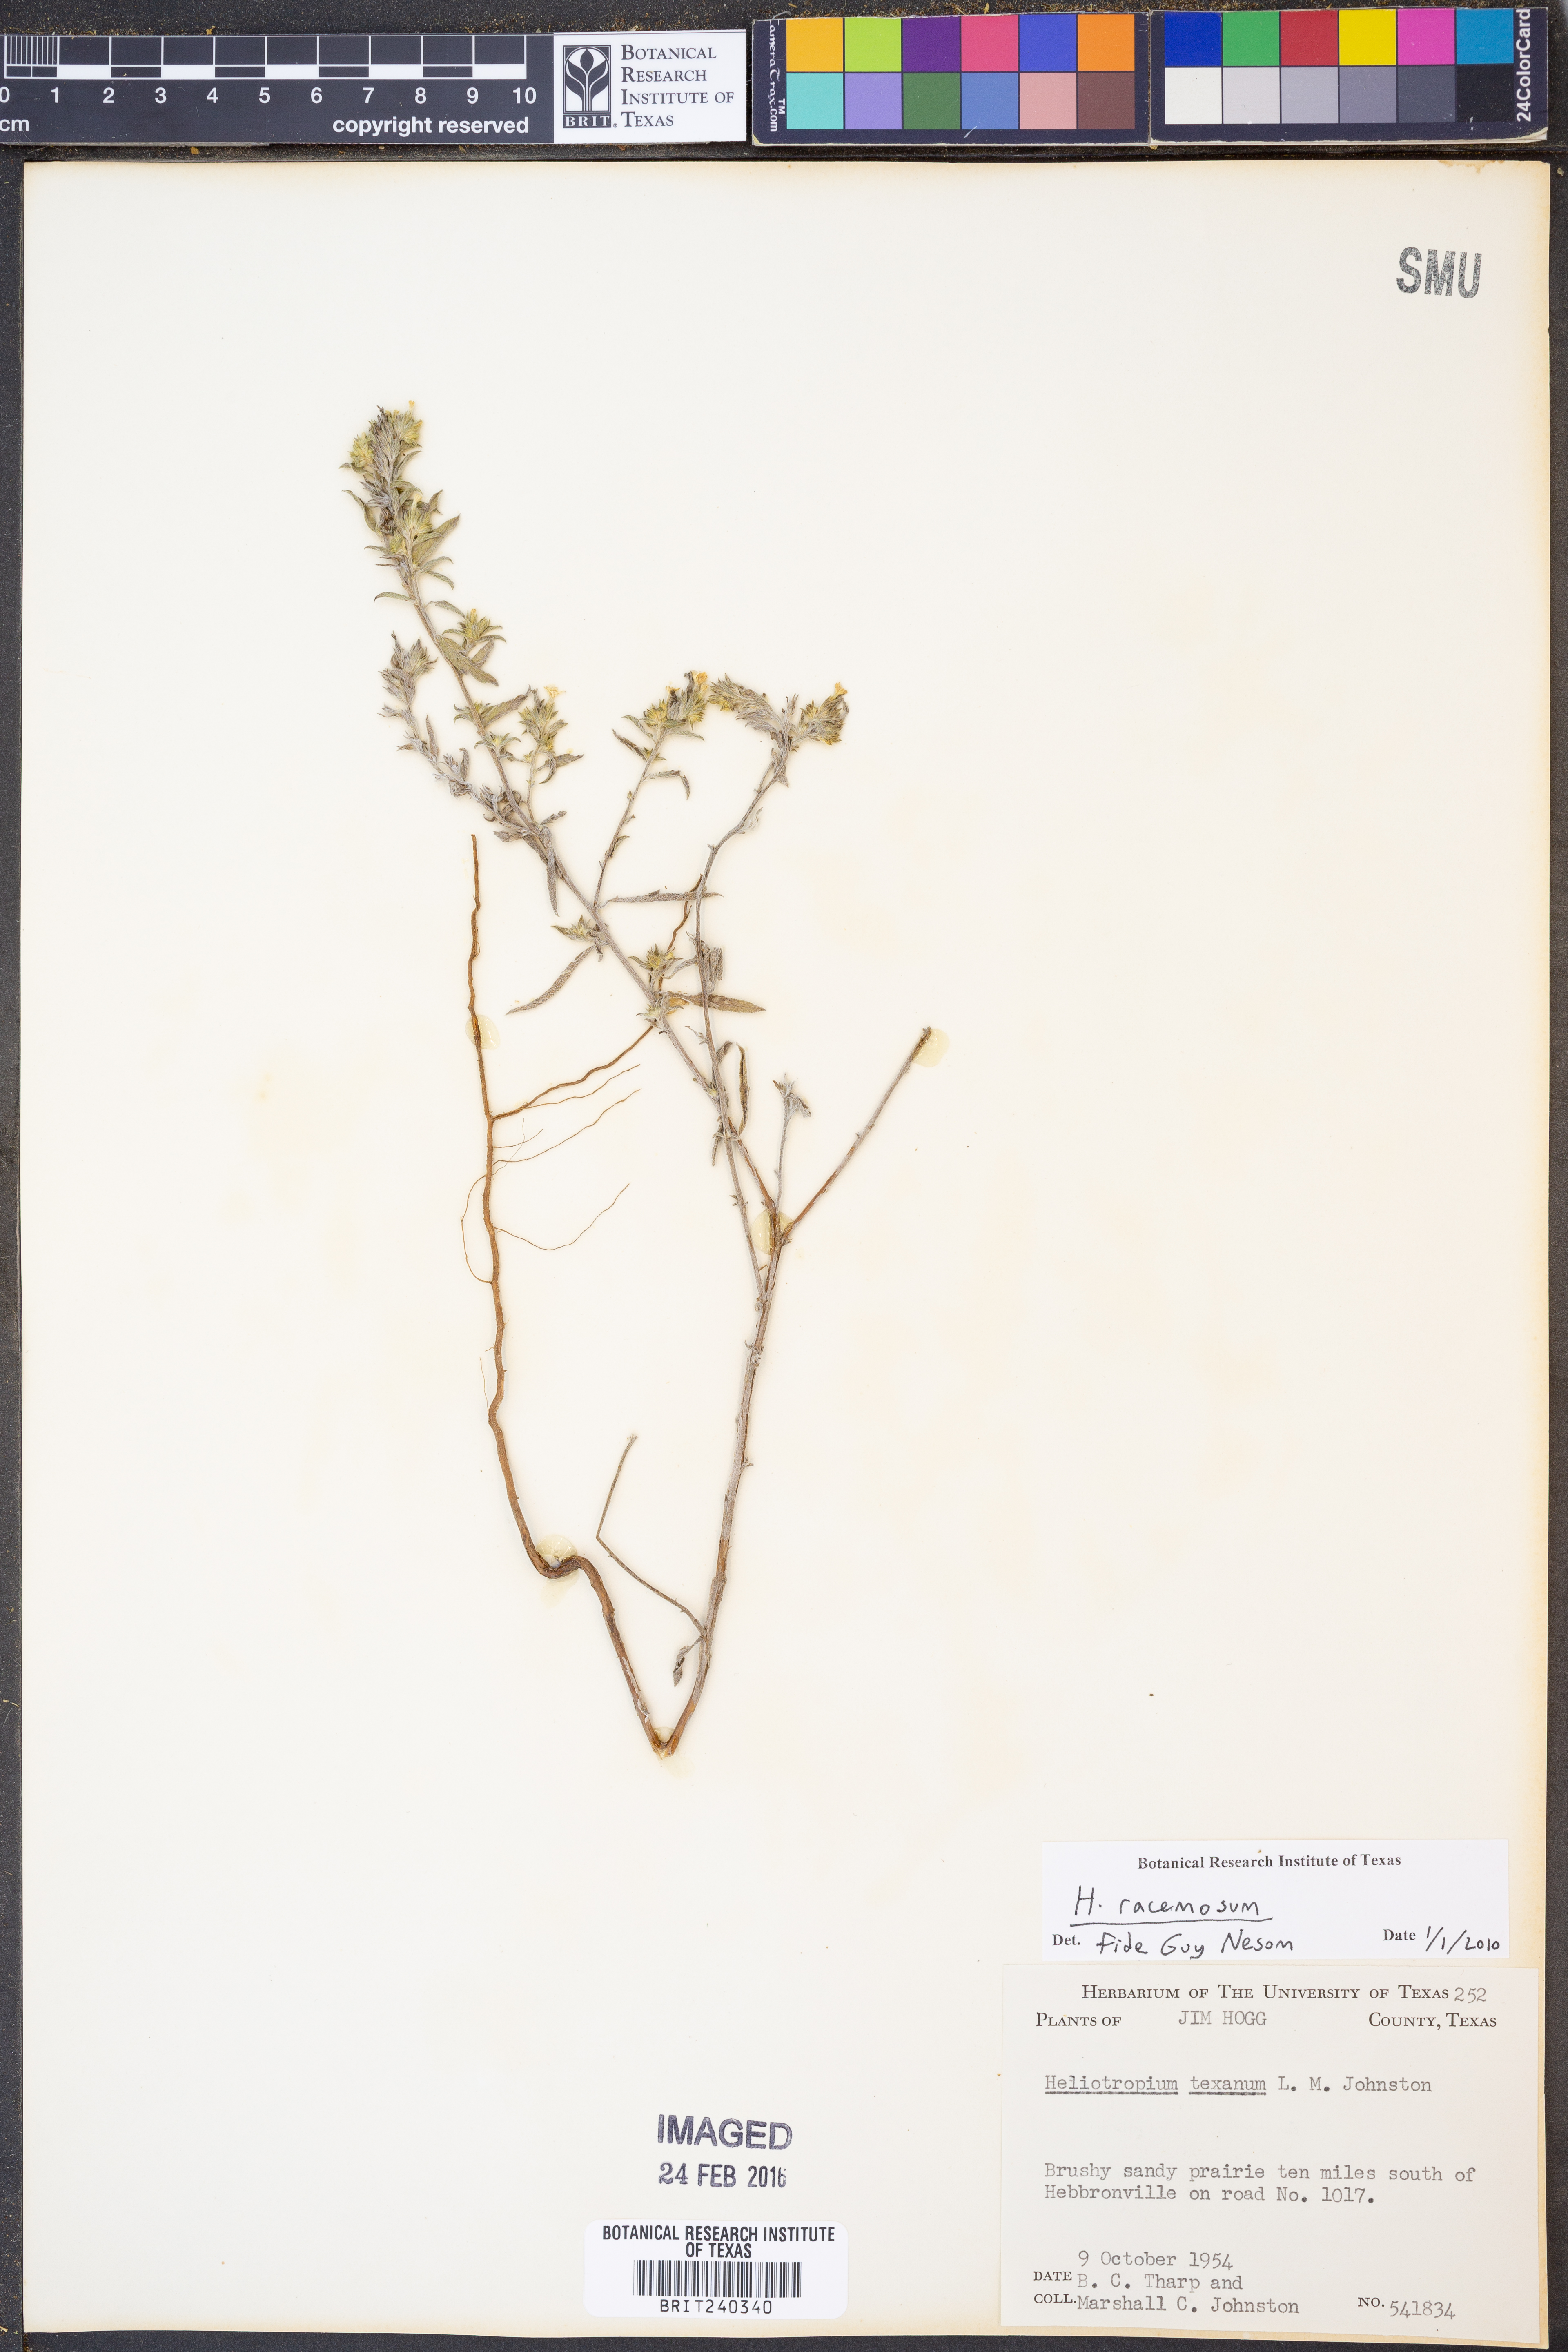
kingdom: Plantae
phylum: Tracheophyta
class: Magnoliopsida
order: Boraginales
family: Heliotropiaceae
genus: Heliotropium
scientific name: Heliotropium racemosum
